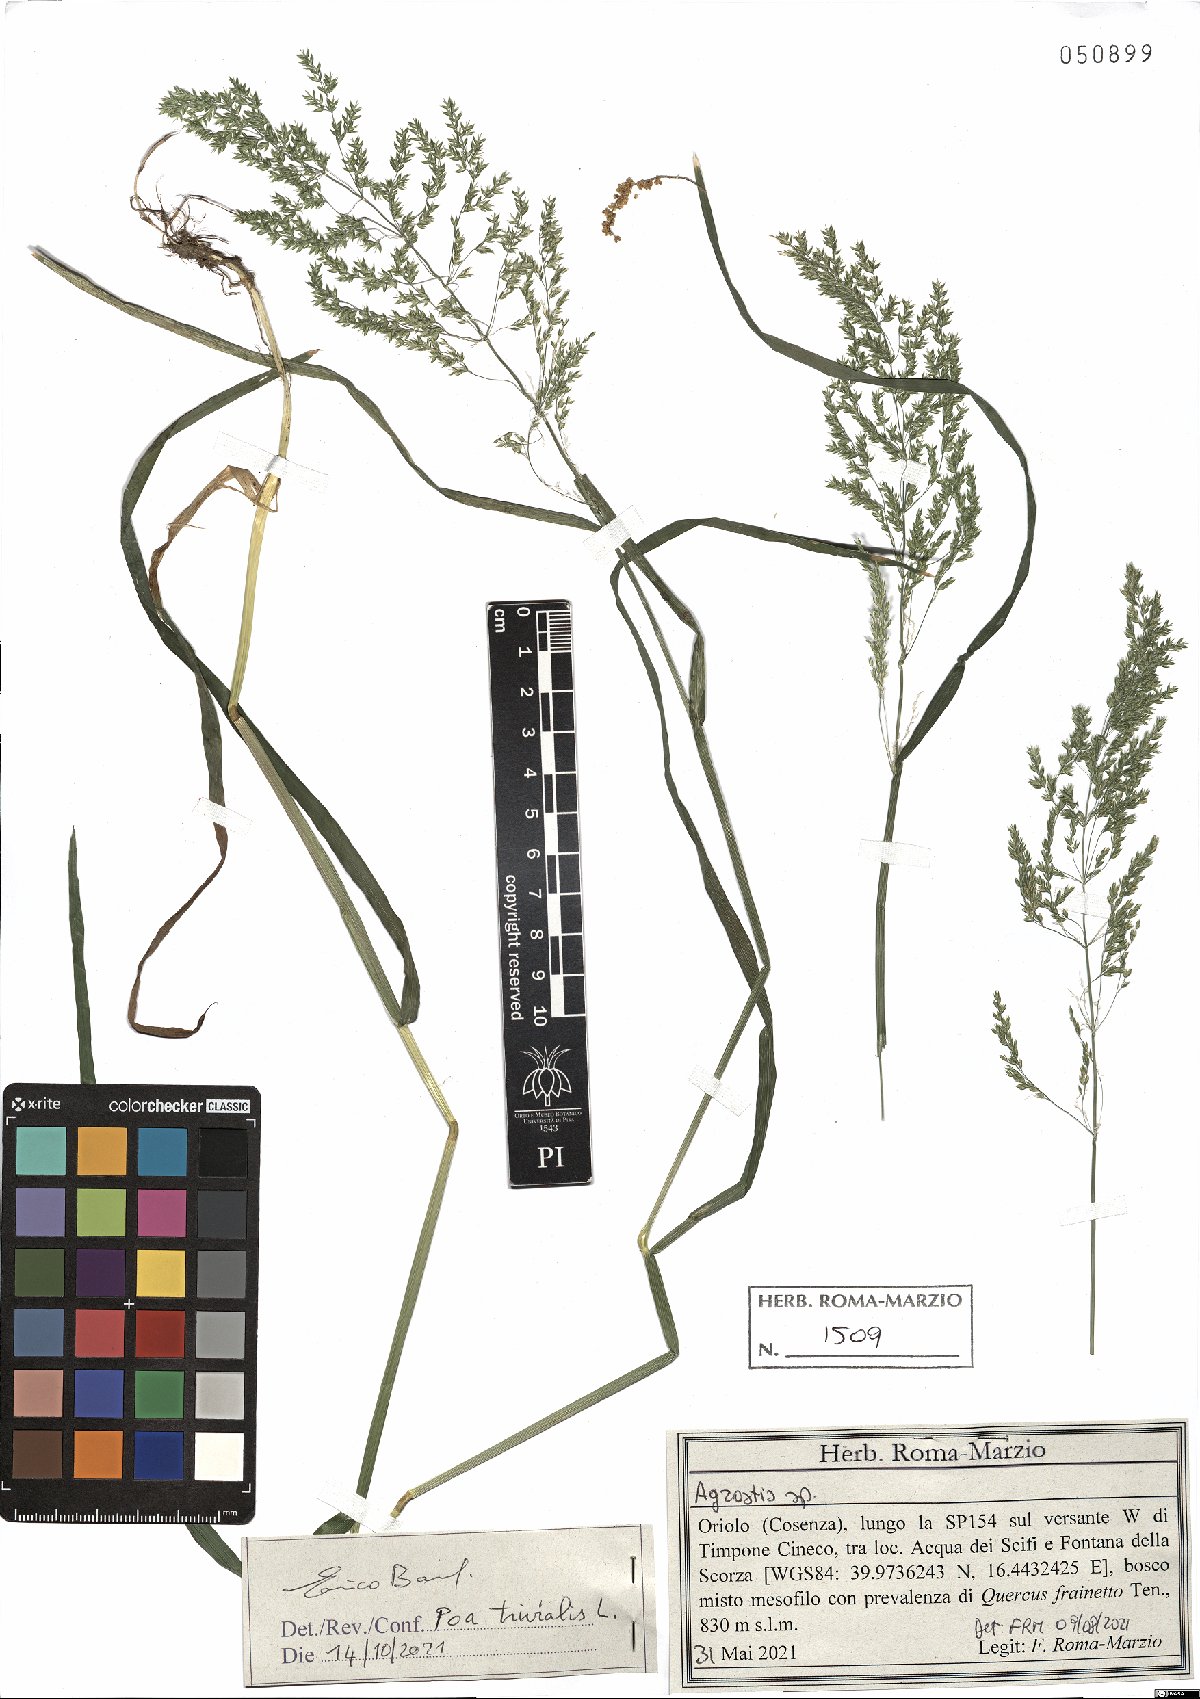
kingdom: Plantae
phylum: Tracheophyta
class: Liliopsida
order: Poales
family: Poaceae
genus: Poa
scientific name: Poa trivialis
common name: Rough bluegrass
